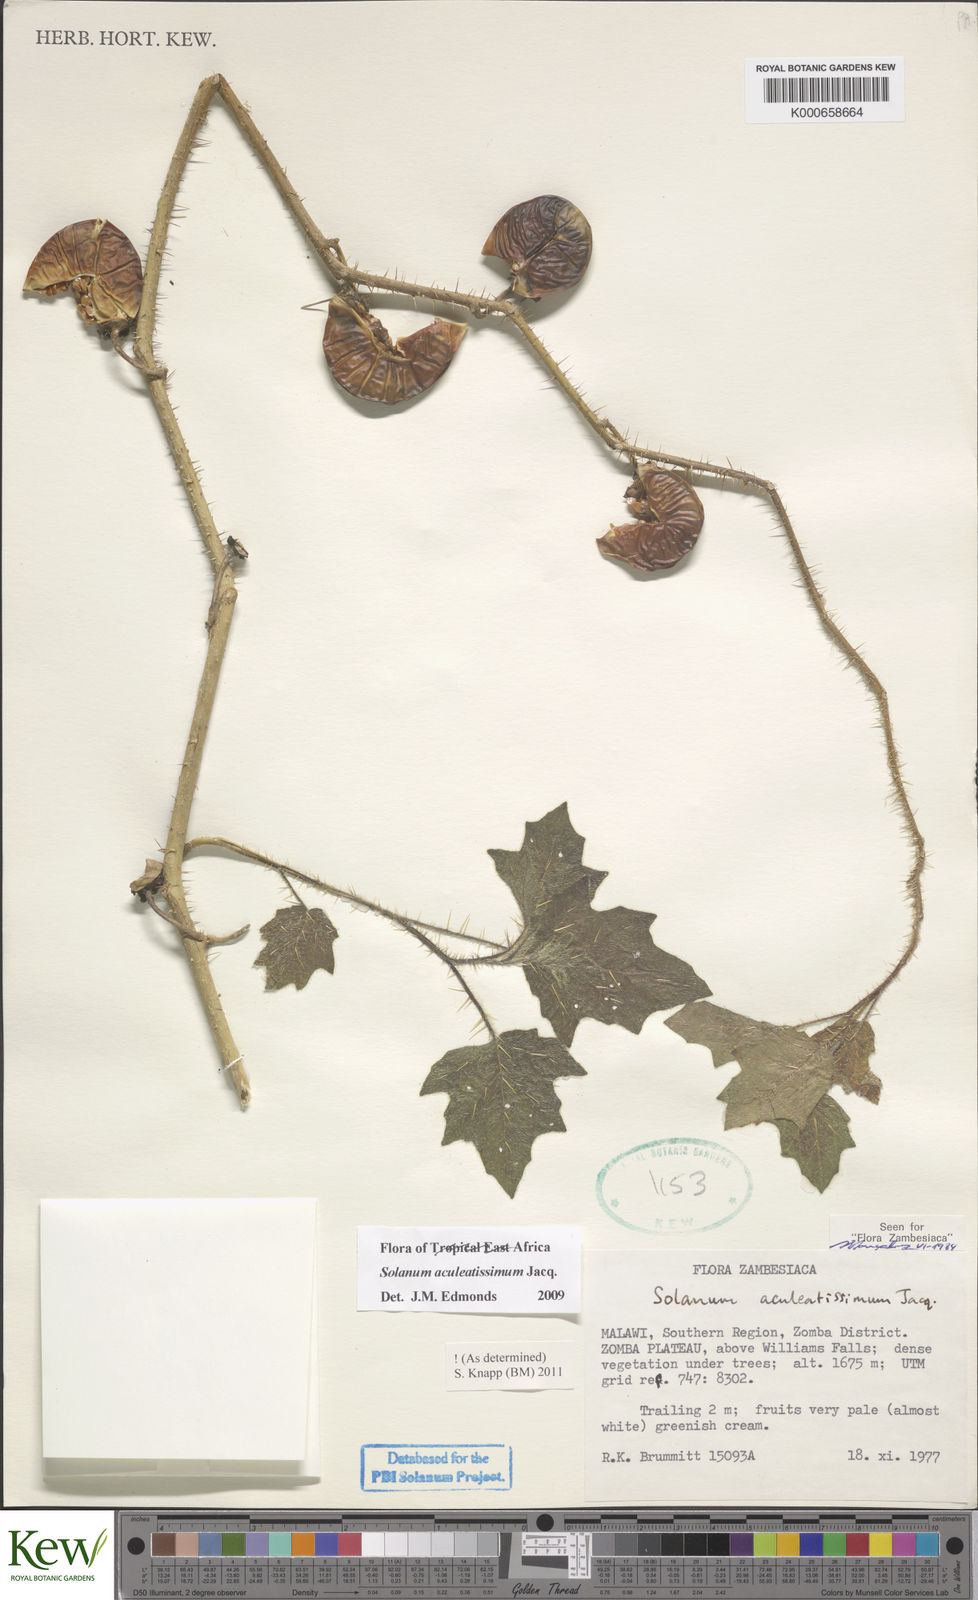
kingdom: Plantae
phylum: Tracheophyta
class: Magnoliopsida
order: Solanales
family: Solanaceae
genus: Solanum
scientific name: Solanum aculeatissimum
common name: Dutch eggplant
